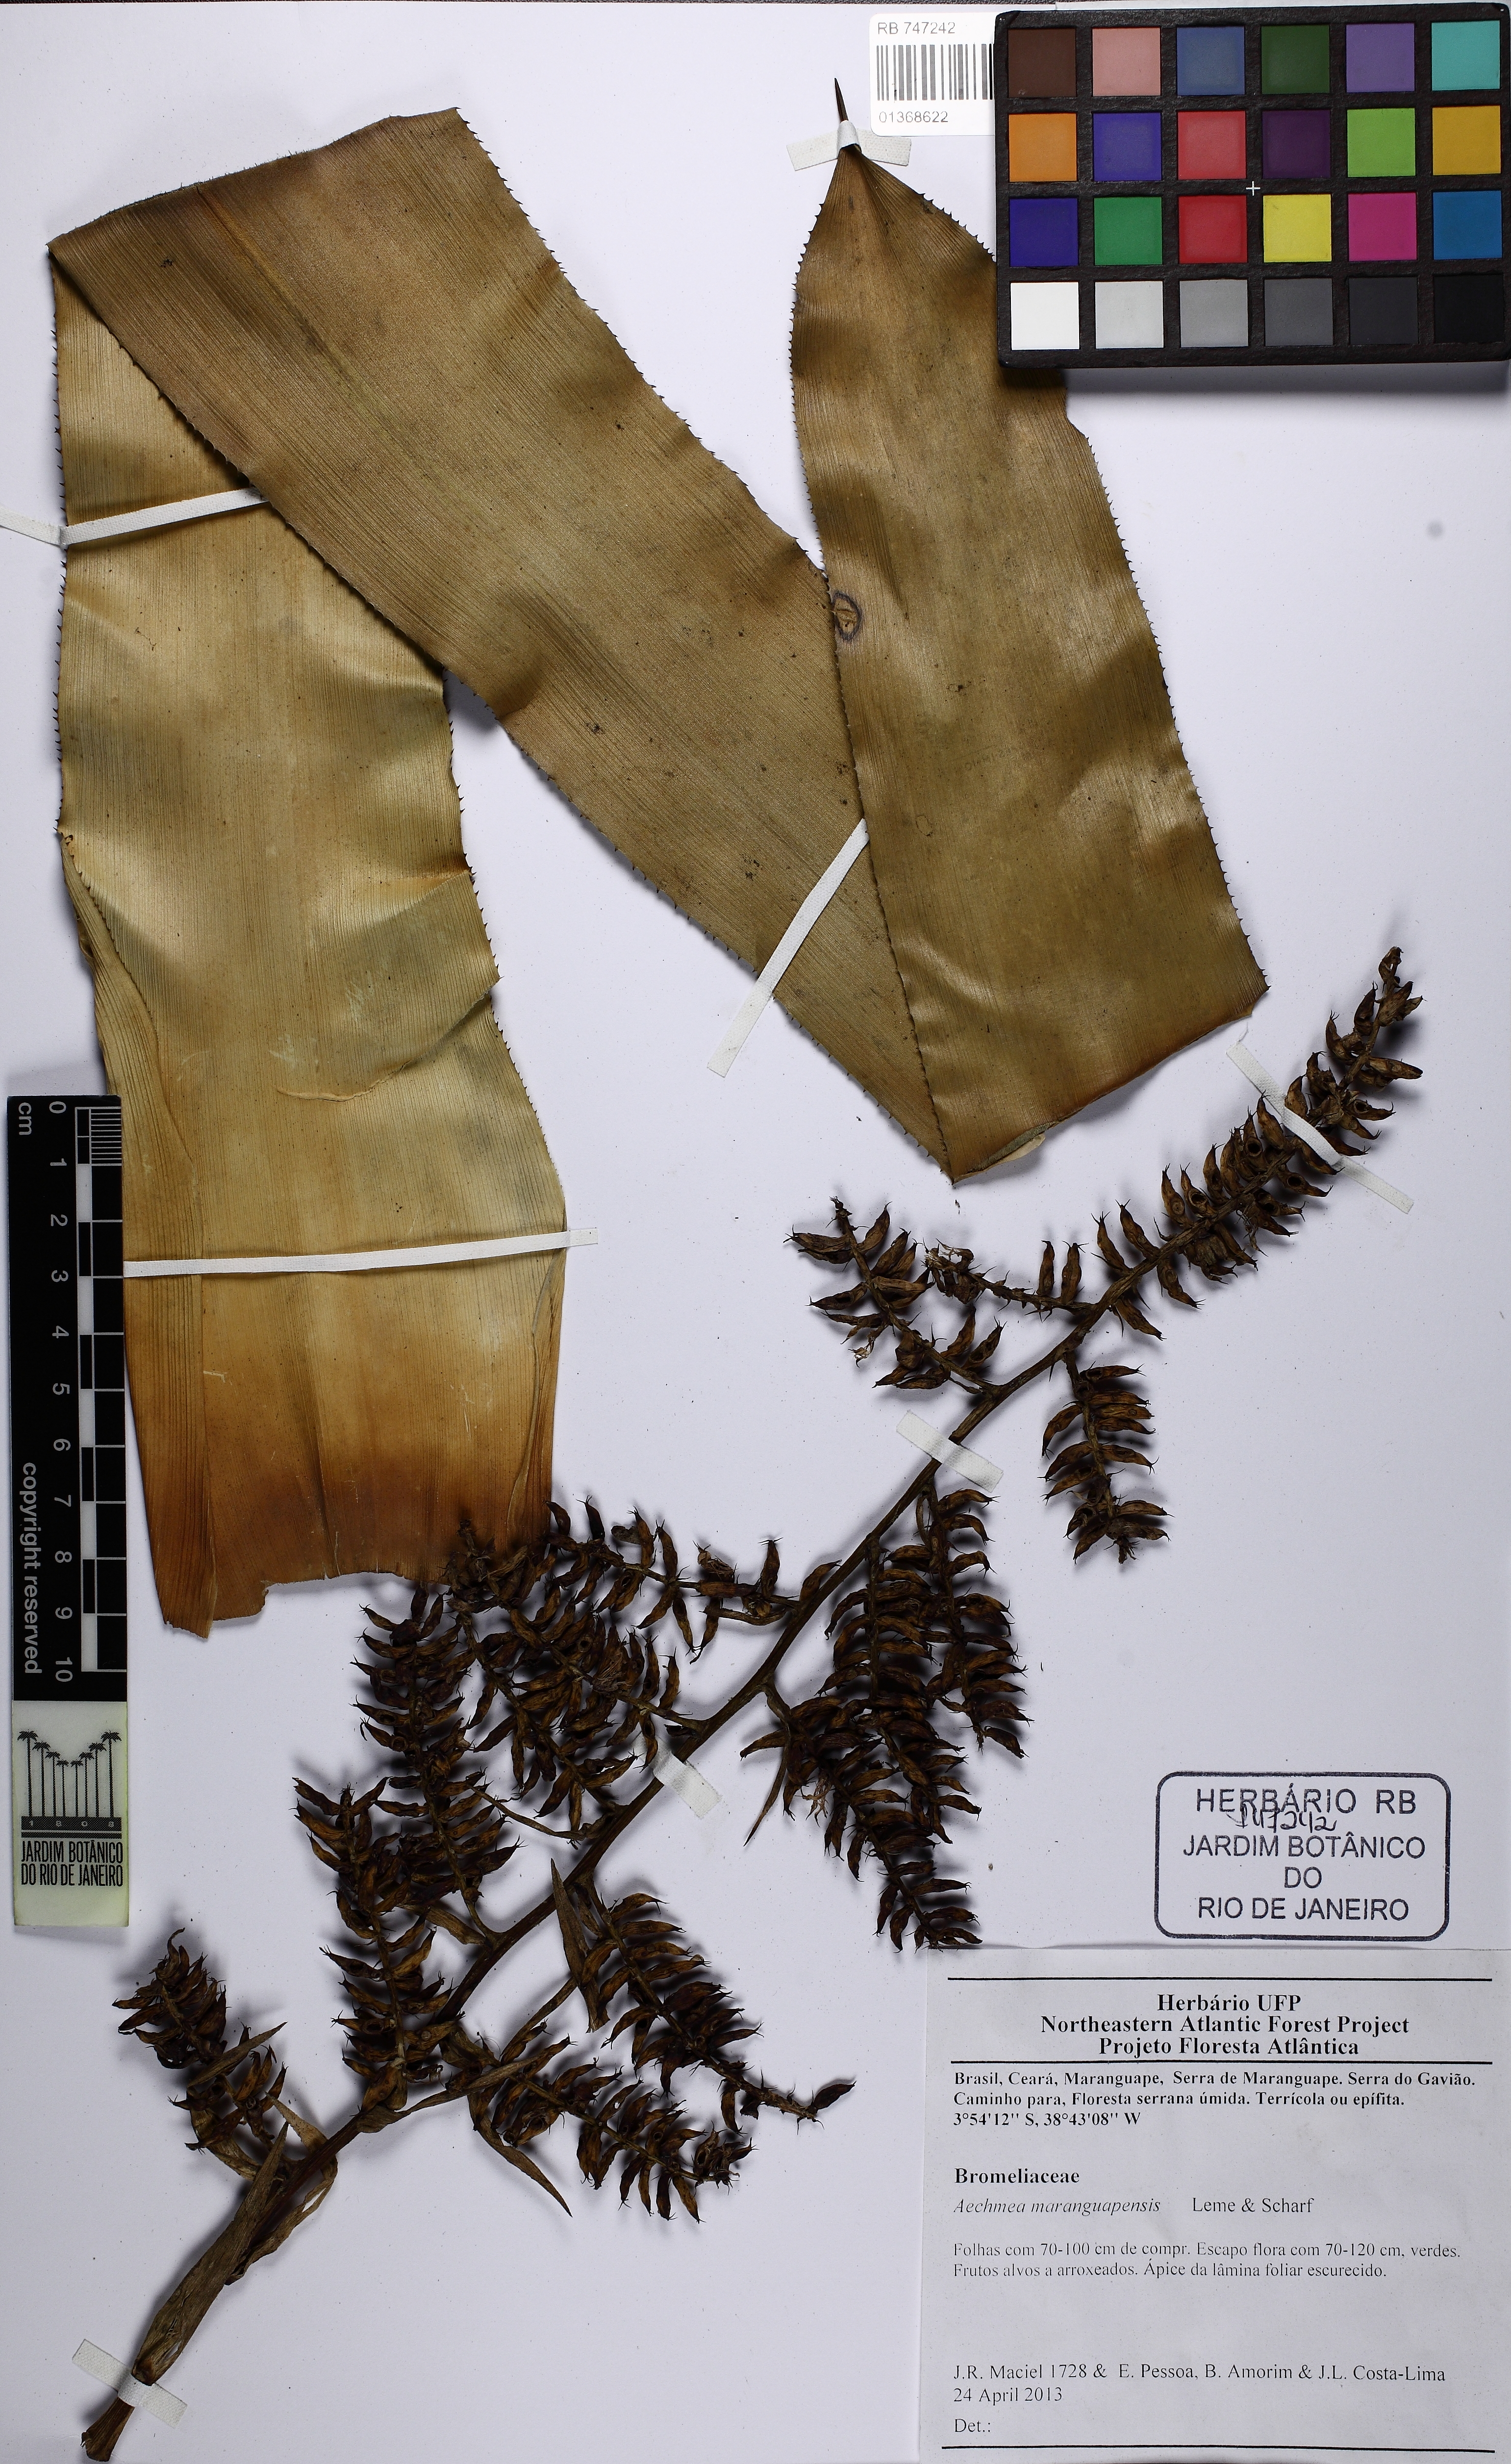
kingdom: Plantae
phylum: Tracheophyta
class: Liliopsida
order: Poales
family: Bromeliaceae
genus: Wittmackia
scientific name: Wittmackia maranguapensis
